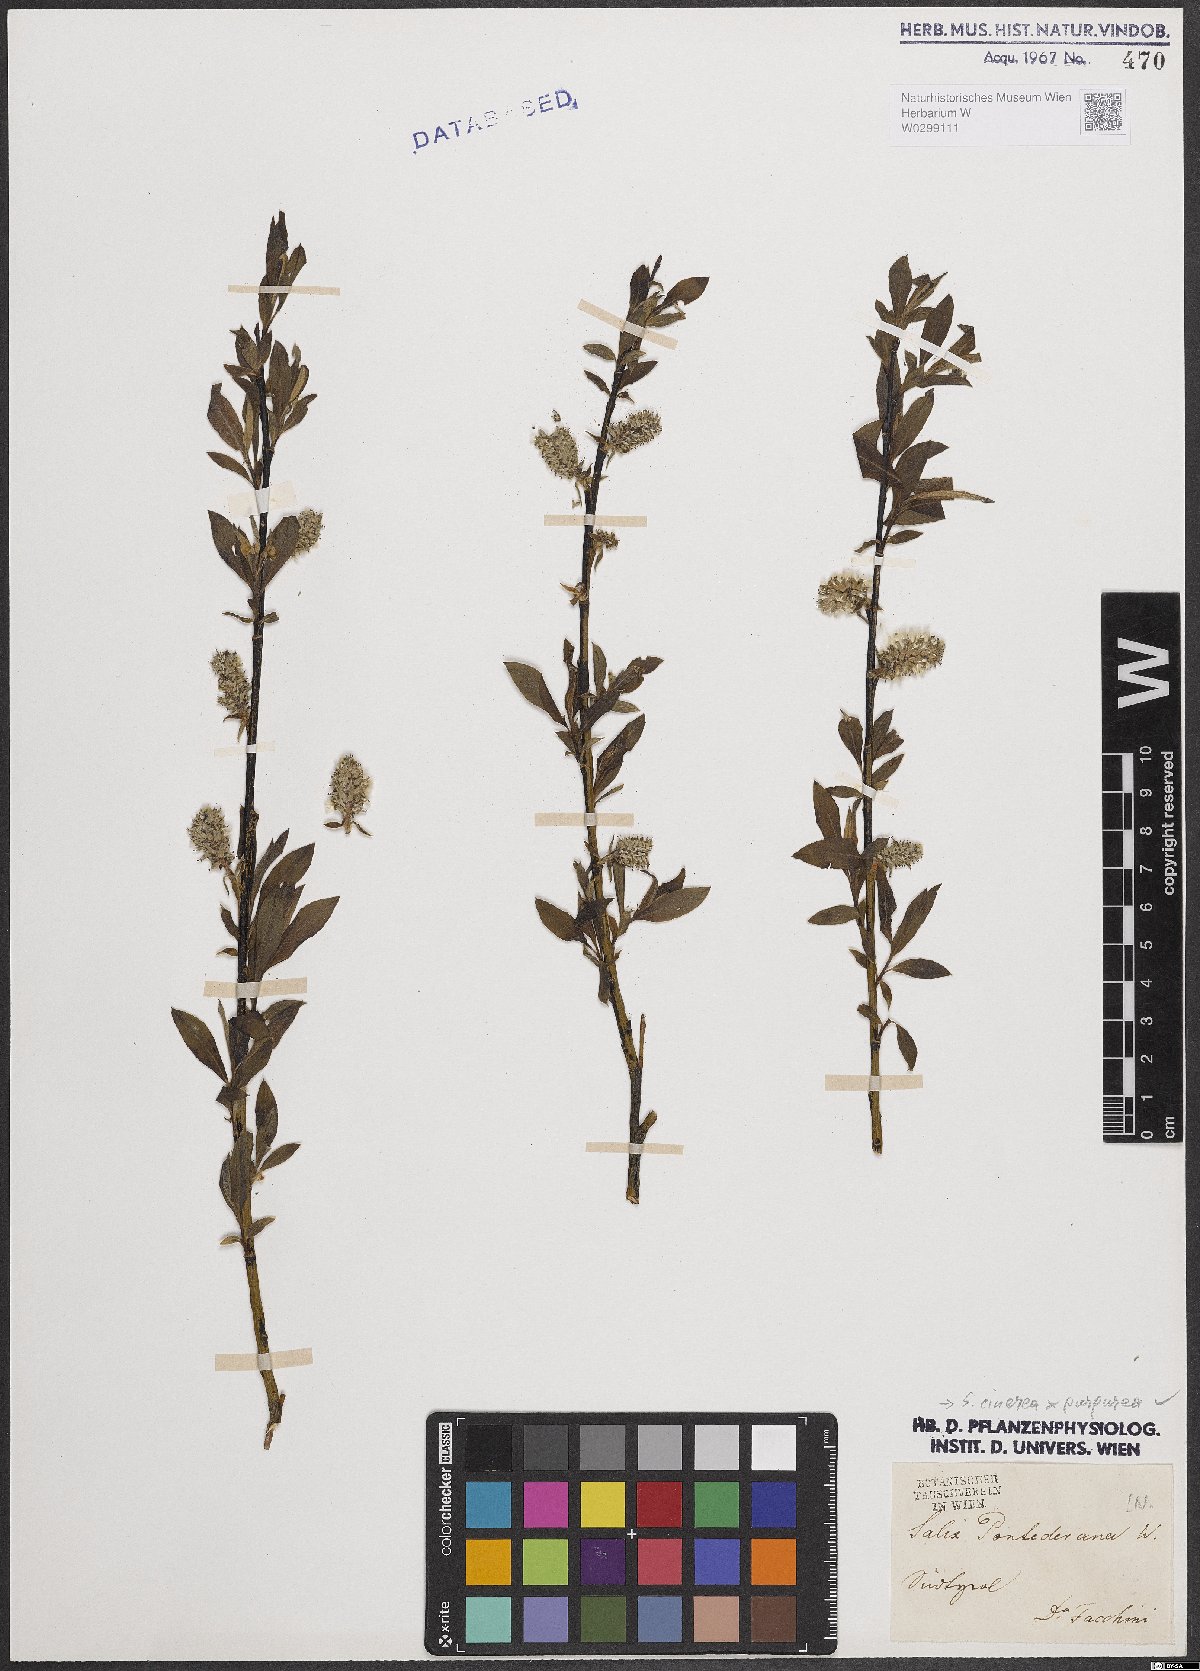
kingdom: Plantae
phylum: Tracheophyta
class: Magnoliopsida
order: Malpighiales
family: Salicaceae
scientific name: Salicaceae
